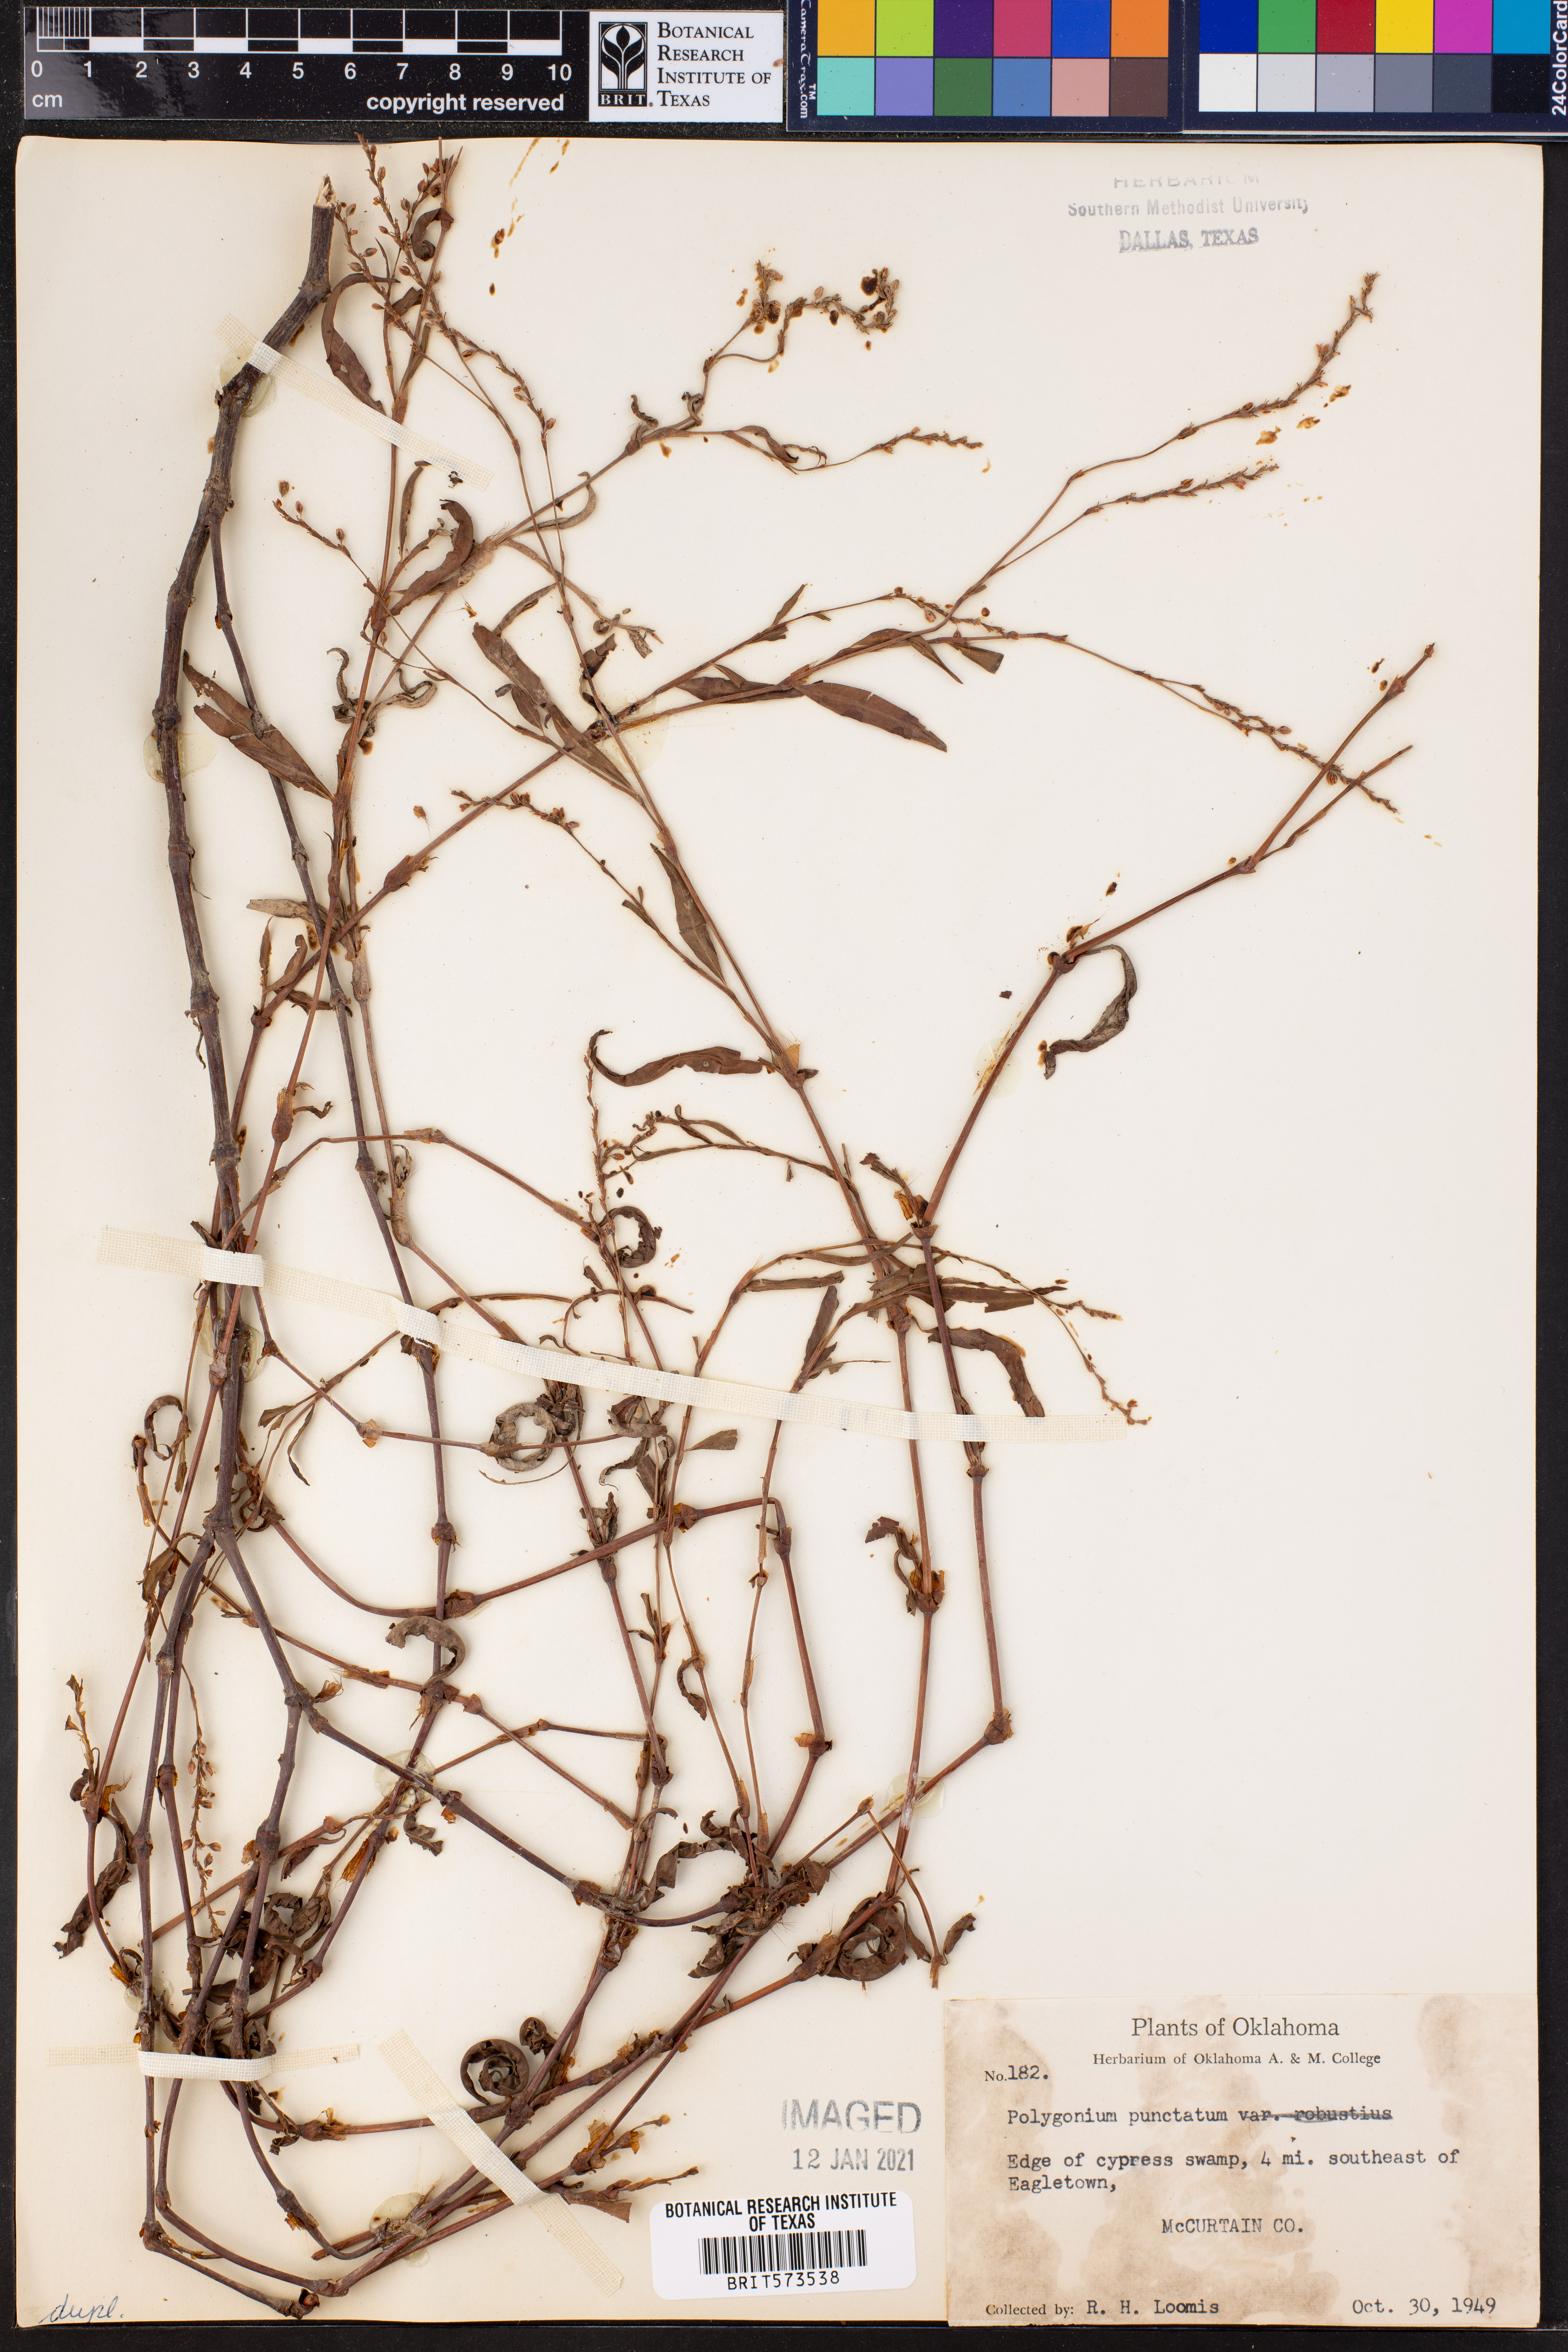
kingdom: Plantae
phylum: Tracheophyta
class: Magnoliopsida
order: Caryophyllales
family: Polygonaceae
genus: Persicaria
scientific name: Persicaria punctata
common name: Dotted smartweed
